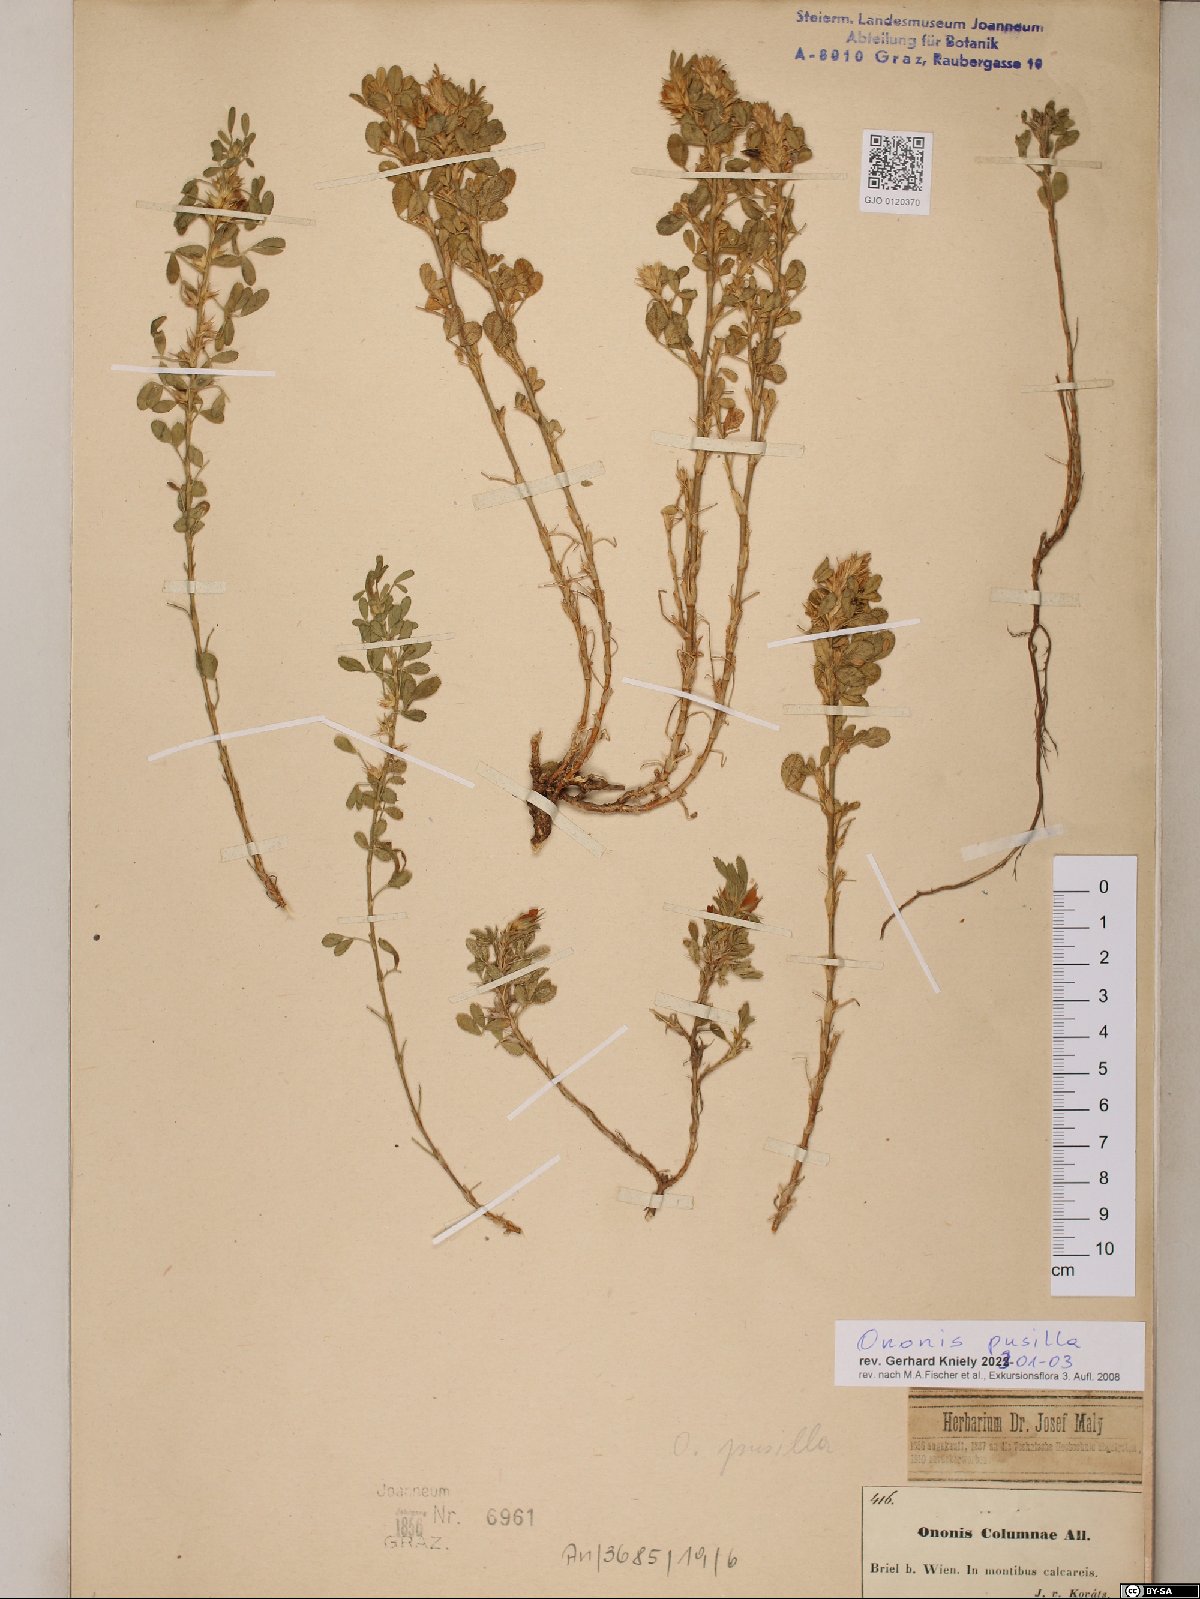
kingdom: Plantae
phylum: Tracheophyta
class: Magnoliopsida
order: Fabales
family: Fabaceae
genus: Ononis
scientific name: Ononis pusilla
